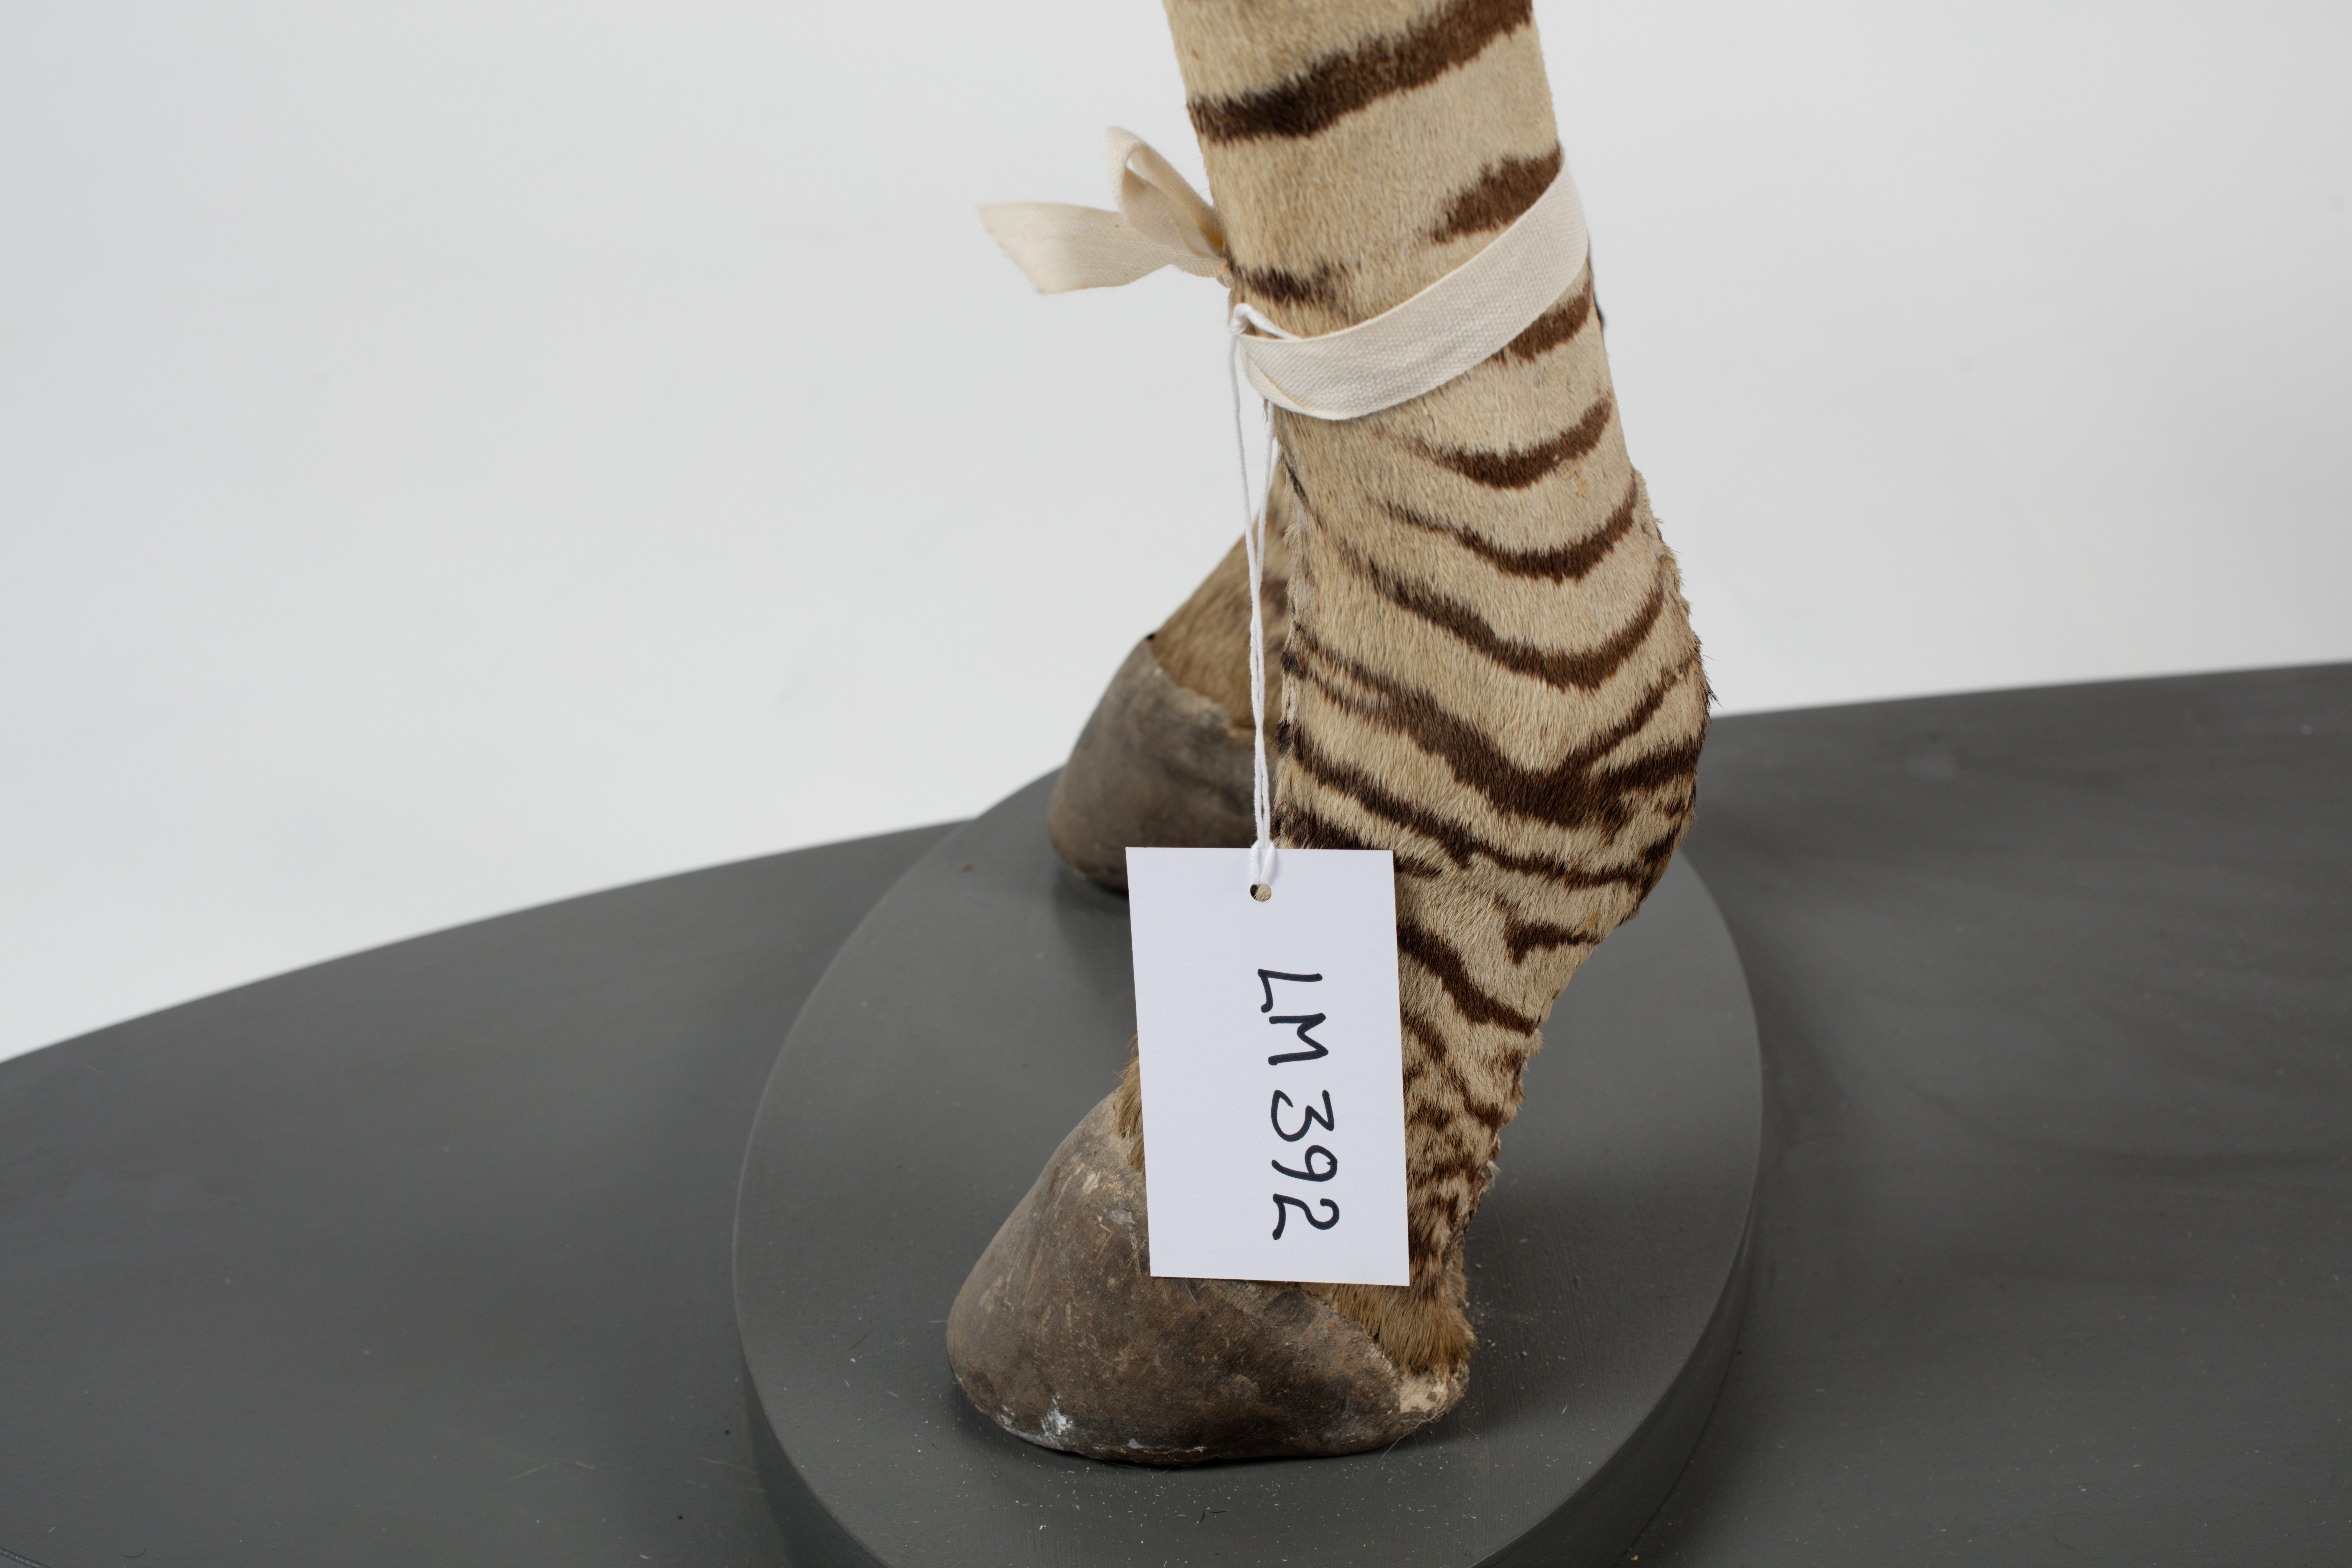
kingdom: Animalia
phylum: Chordata
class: Mammalia
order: Perissodactyla
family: Equidae
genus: Equus
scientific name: Equus quagga
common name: Plains zebra
